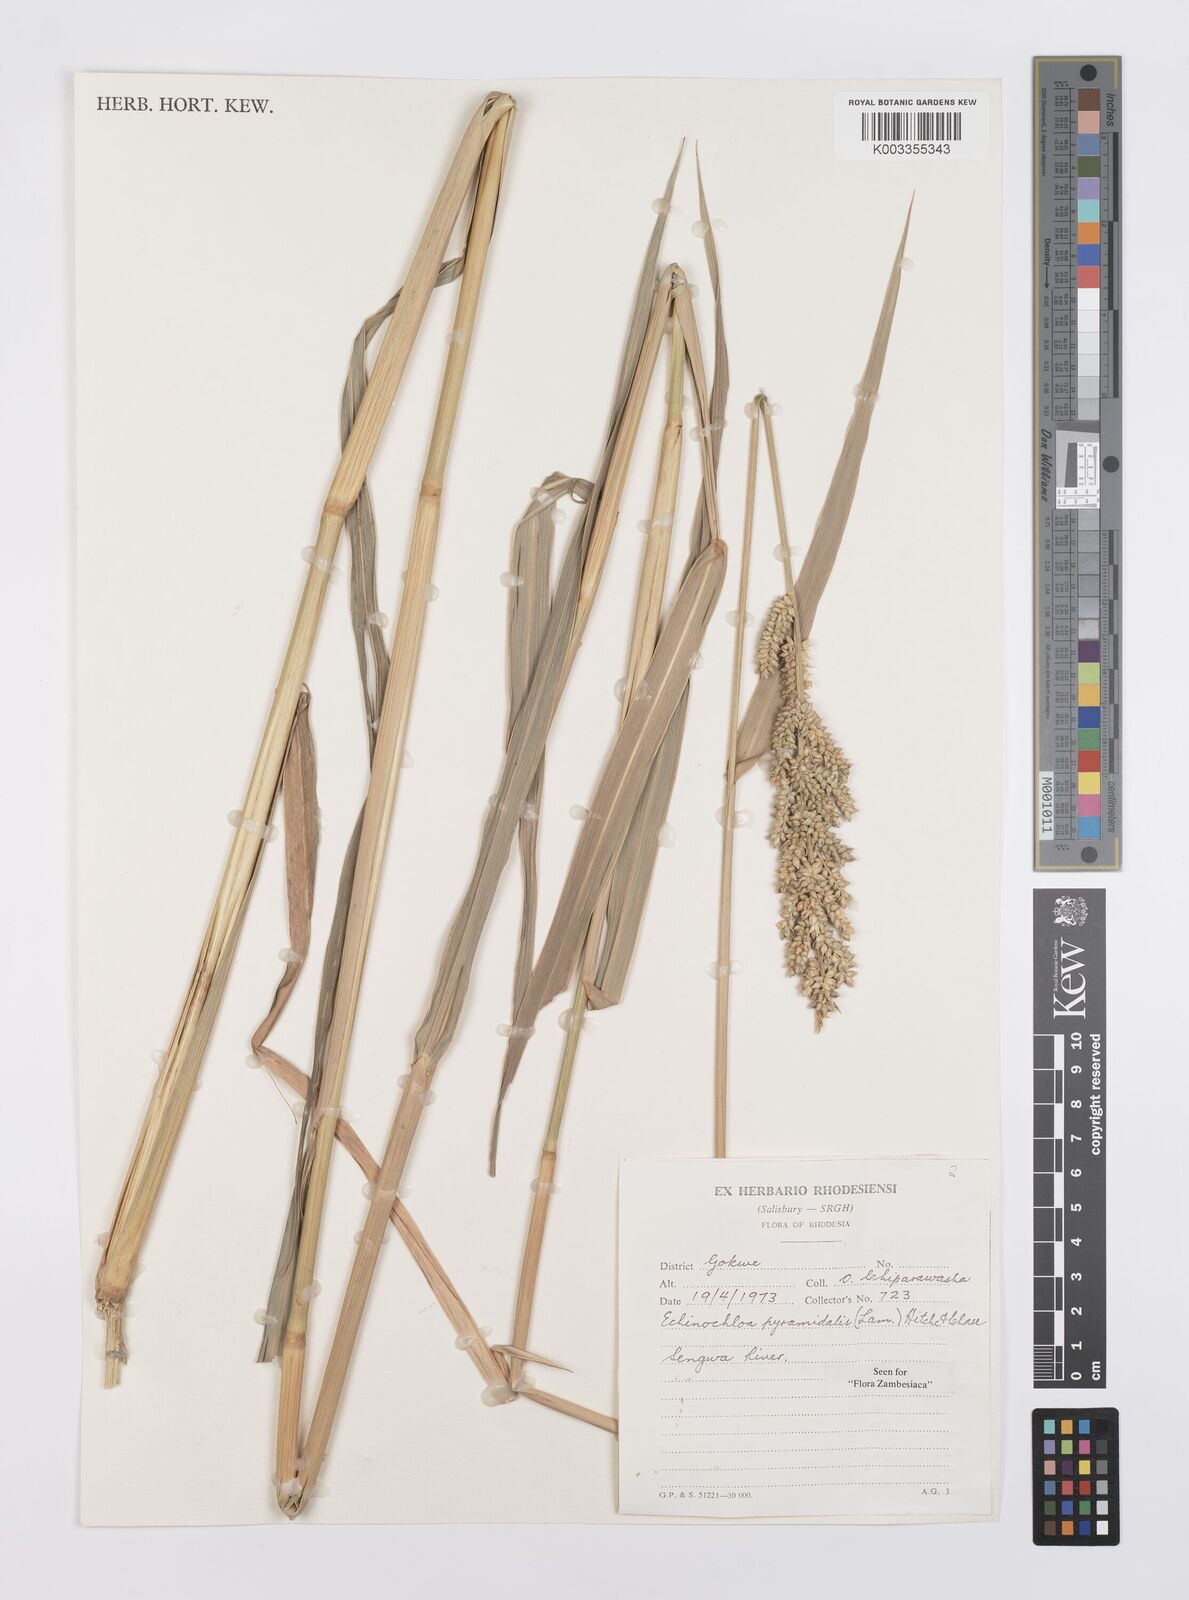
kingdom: Plantae
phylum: Tracheophyta
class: Liliopsida
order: Poales
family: Poaceae
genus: Echinochloa
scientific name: Echinochloa pyramidalis
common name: Antelope grass
